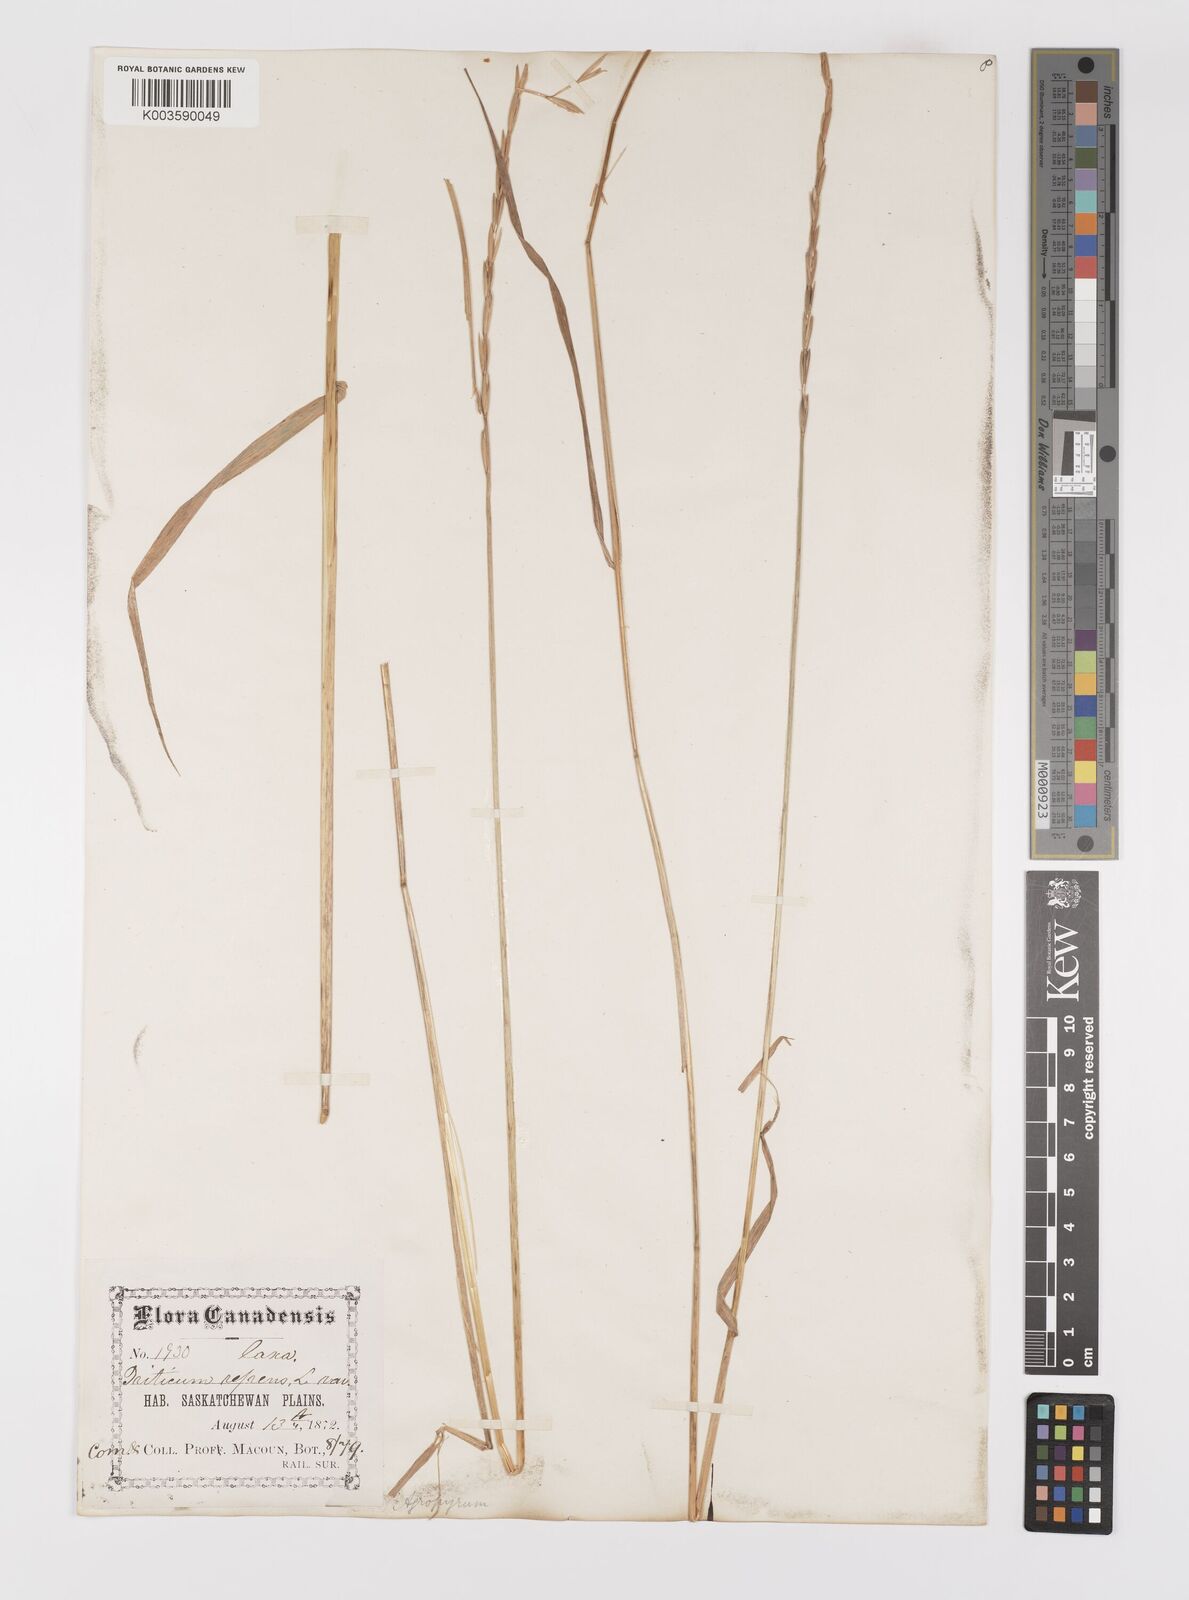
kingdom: Plantae
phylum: Tracheophyta
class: Liliopsida
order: Poales
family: Poaceae
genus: Elymus
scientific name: Elymus repens
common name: Quackgrass
